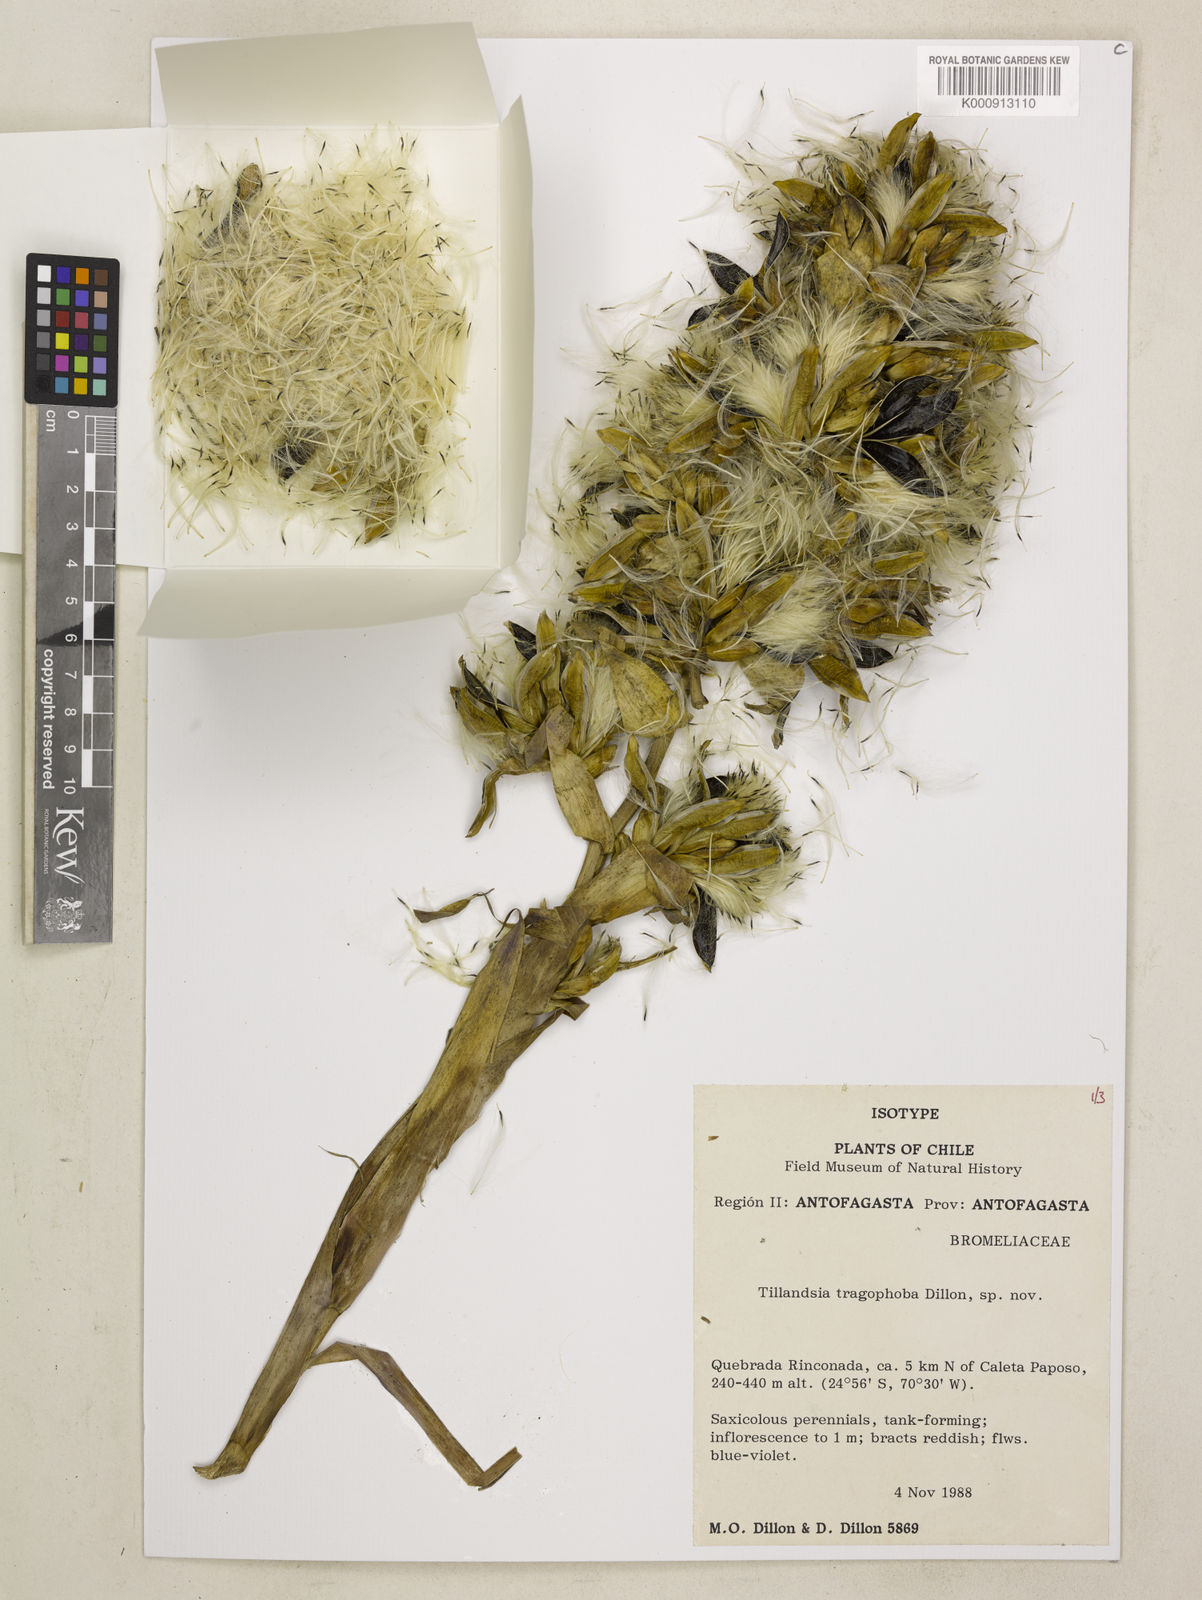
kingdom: Plantae
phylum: Tracheophyta
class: Liliopsida
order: Poales
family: Bromeliaceae
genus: Tillandsia
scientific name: Tillandsia tragophoba
